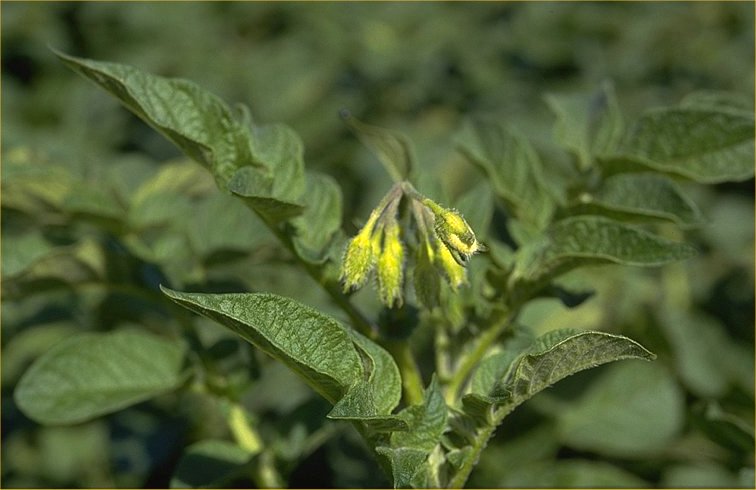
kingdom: Plantae
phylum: Tracheophyta
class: Magnoliopsida
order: Solanales
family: Solanaceae
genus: Solanum
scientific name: Solanum tuberosum
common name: Potato
